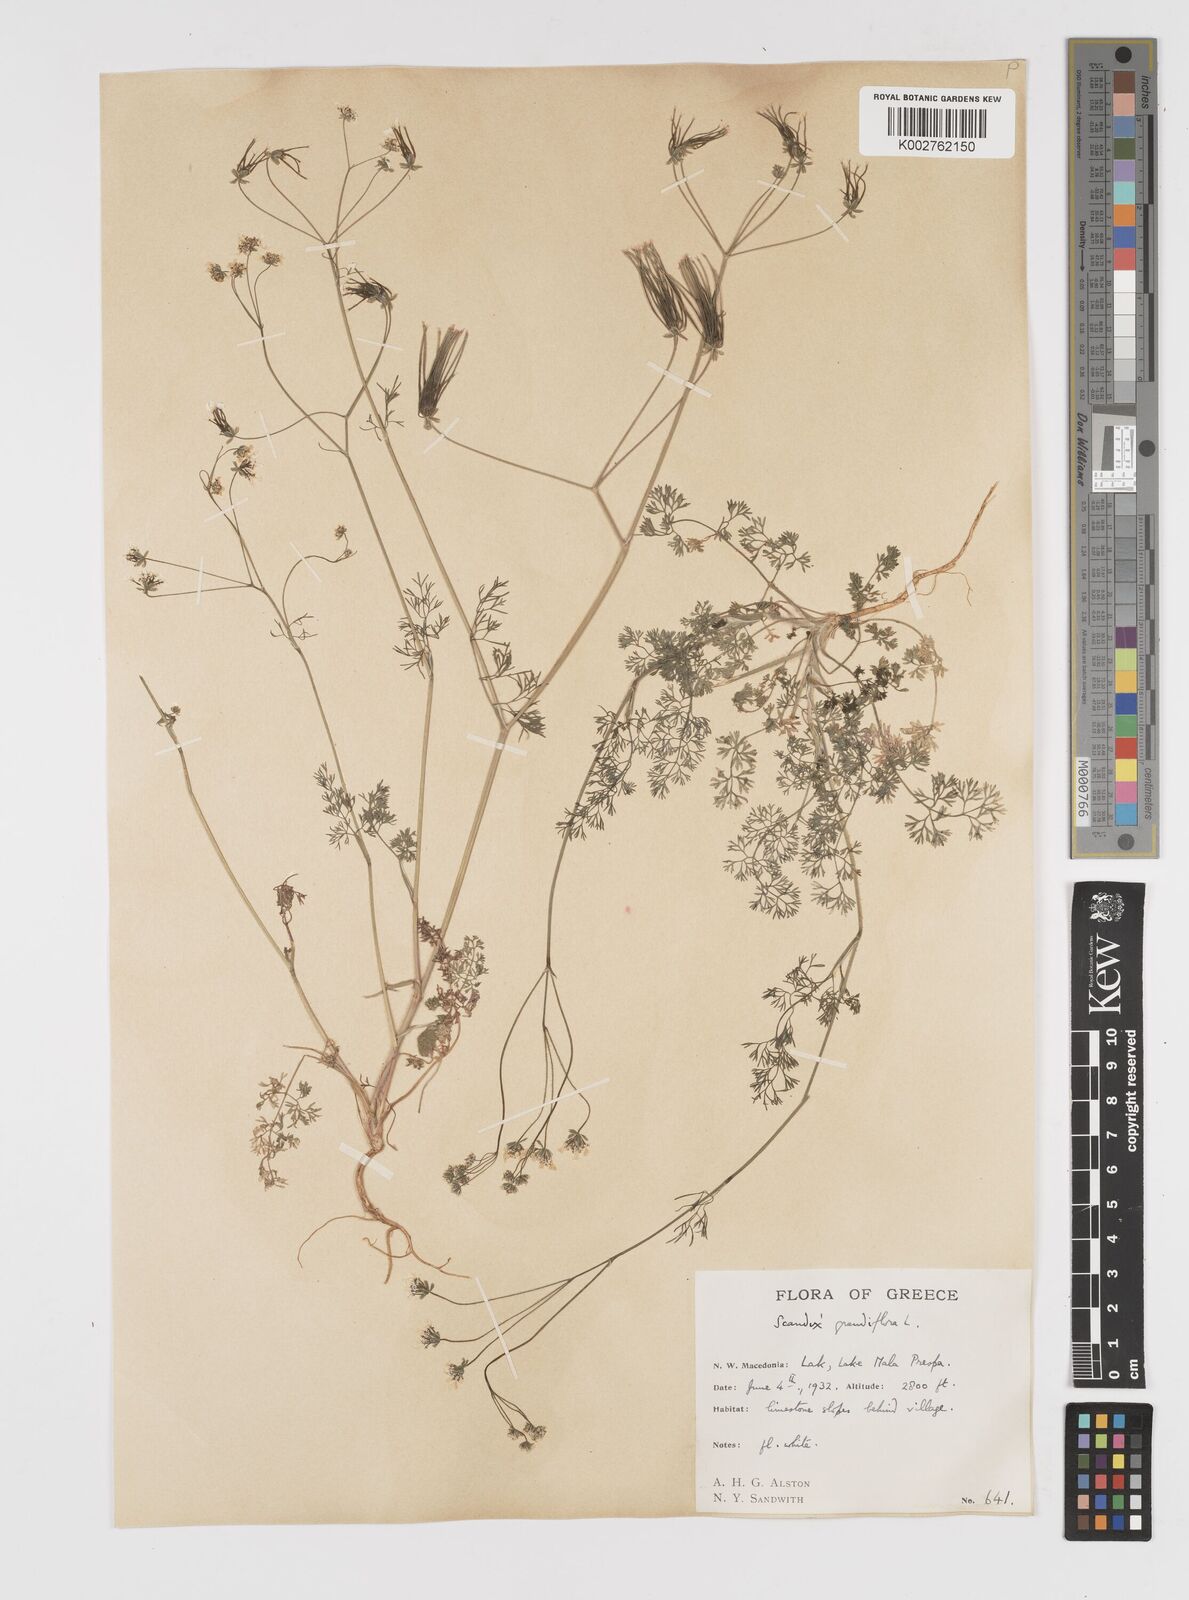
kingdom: Plantae
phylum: Tracheophyta
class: Magnoliopsida
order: Apiales
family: Apiaceae
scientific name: Apiaceae
